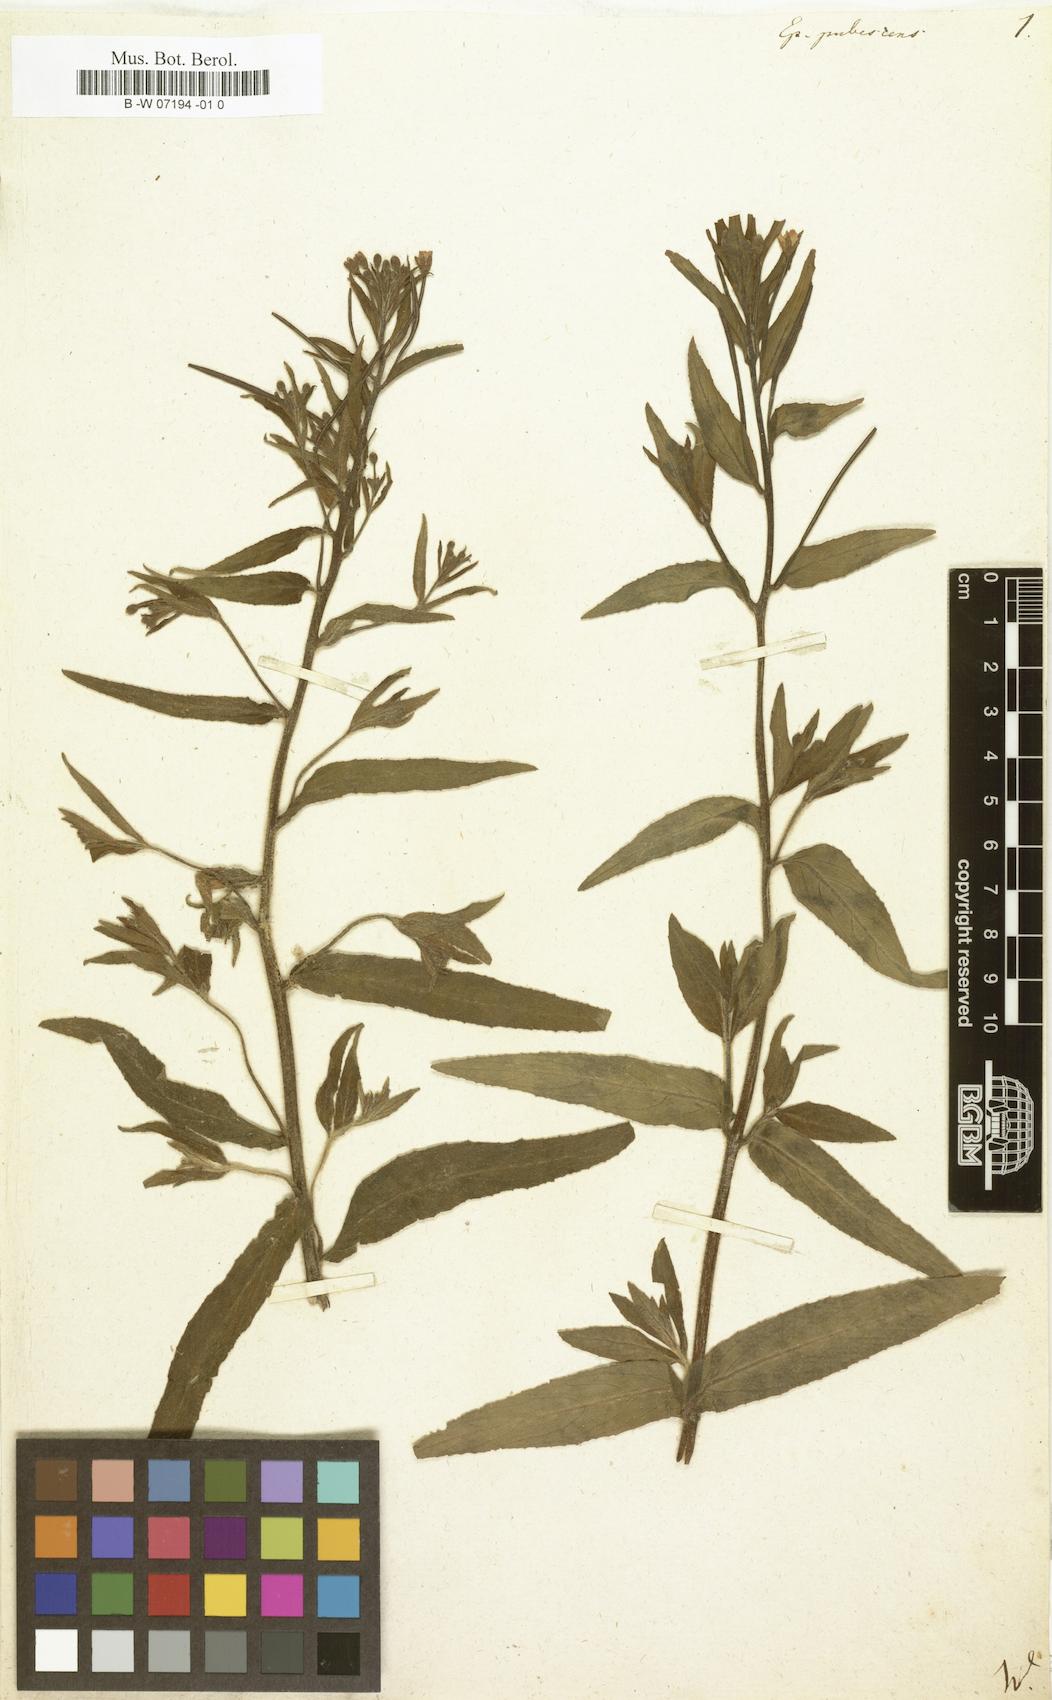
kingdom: Plantae
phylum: Tracheophyta
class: Magnoliopsida
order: Myrtales
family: Onagraceae
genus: Epilobium
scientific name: Epilobium
